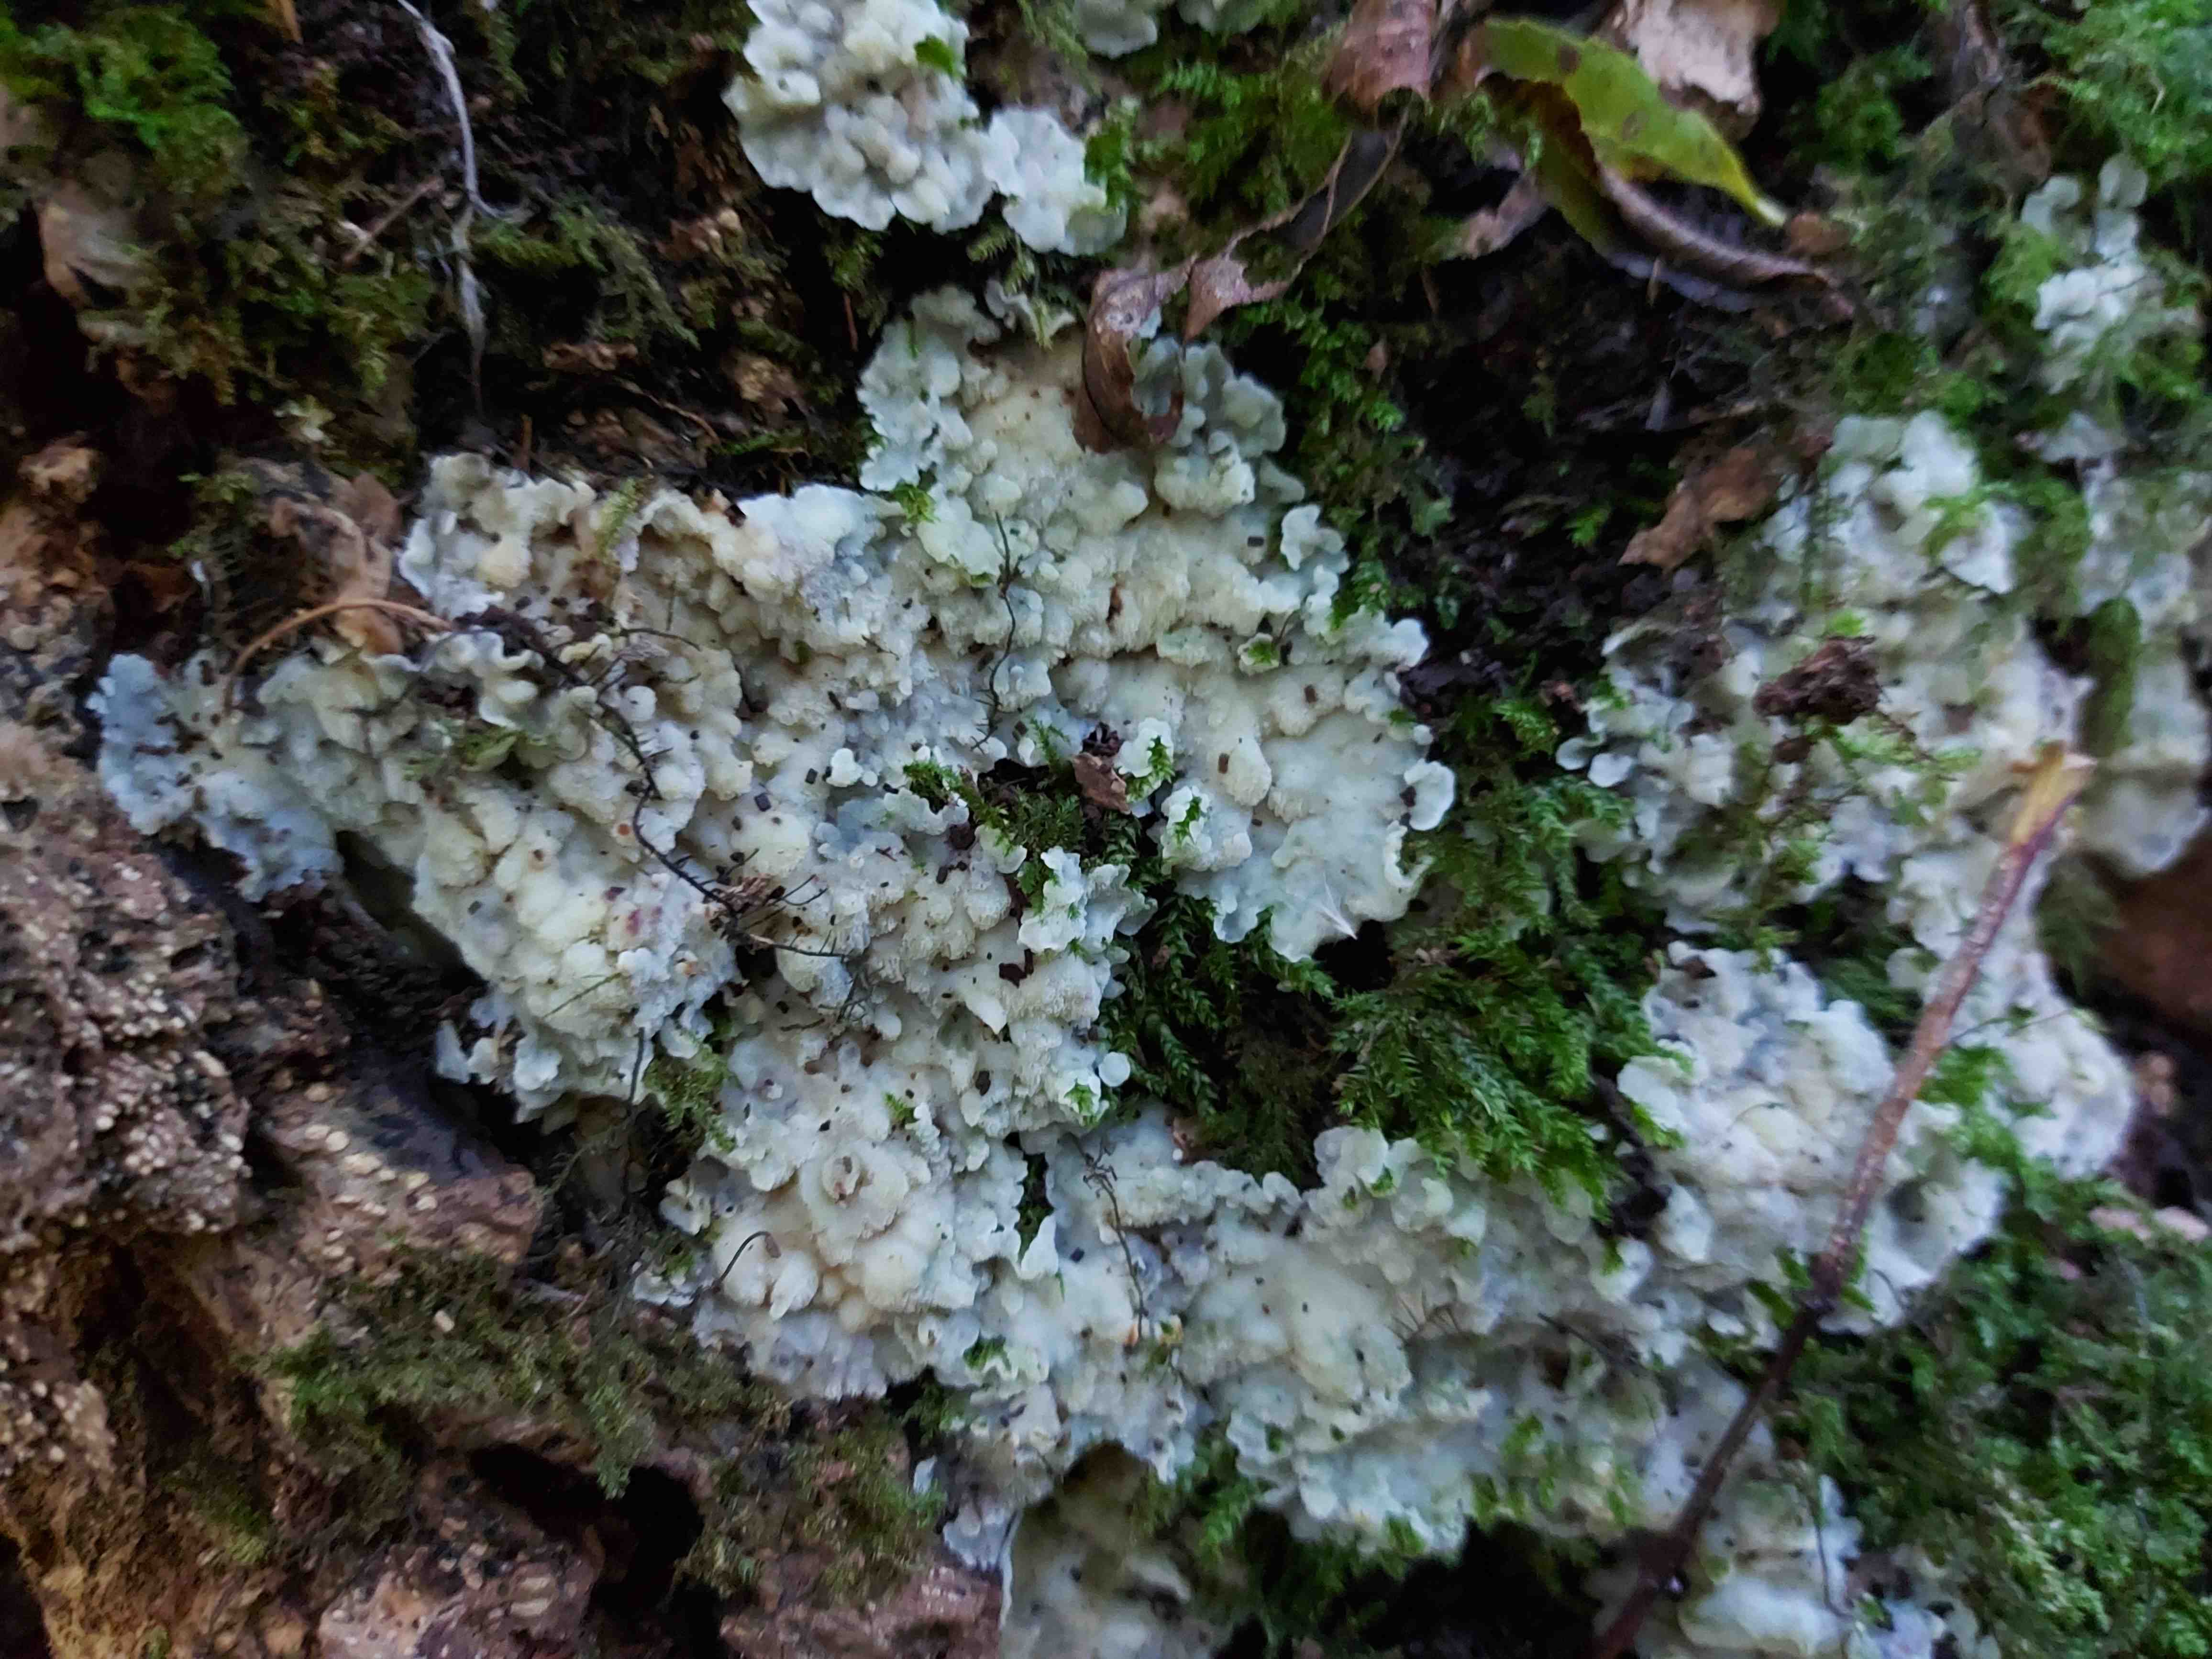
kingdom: Fungi
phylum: Basidiomycota
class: Agaricomycetes
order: Polyporales
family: Meruliaceae
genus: Physisporinus
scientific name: Physisporinus vitreus
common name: mastesvamp
